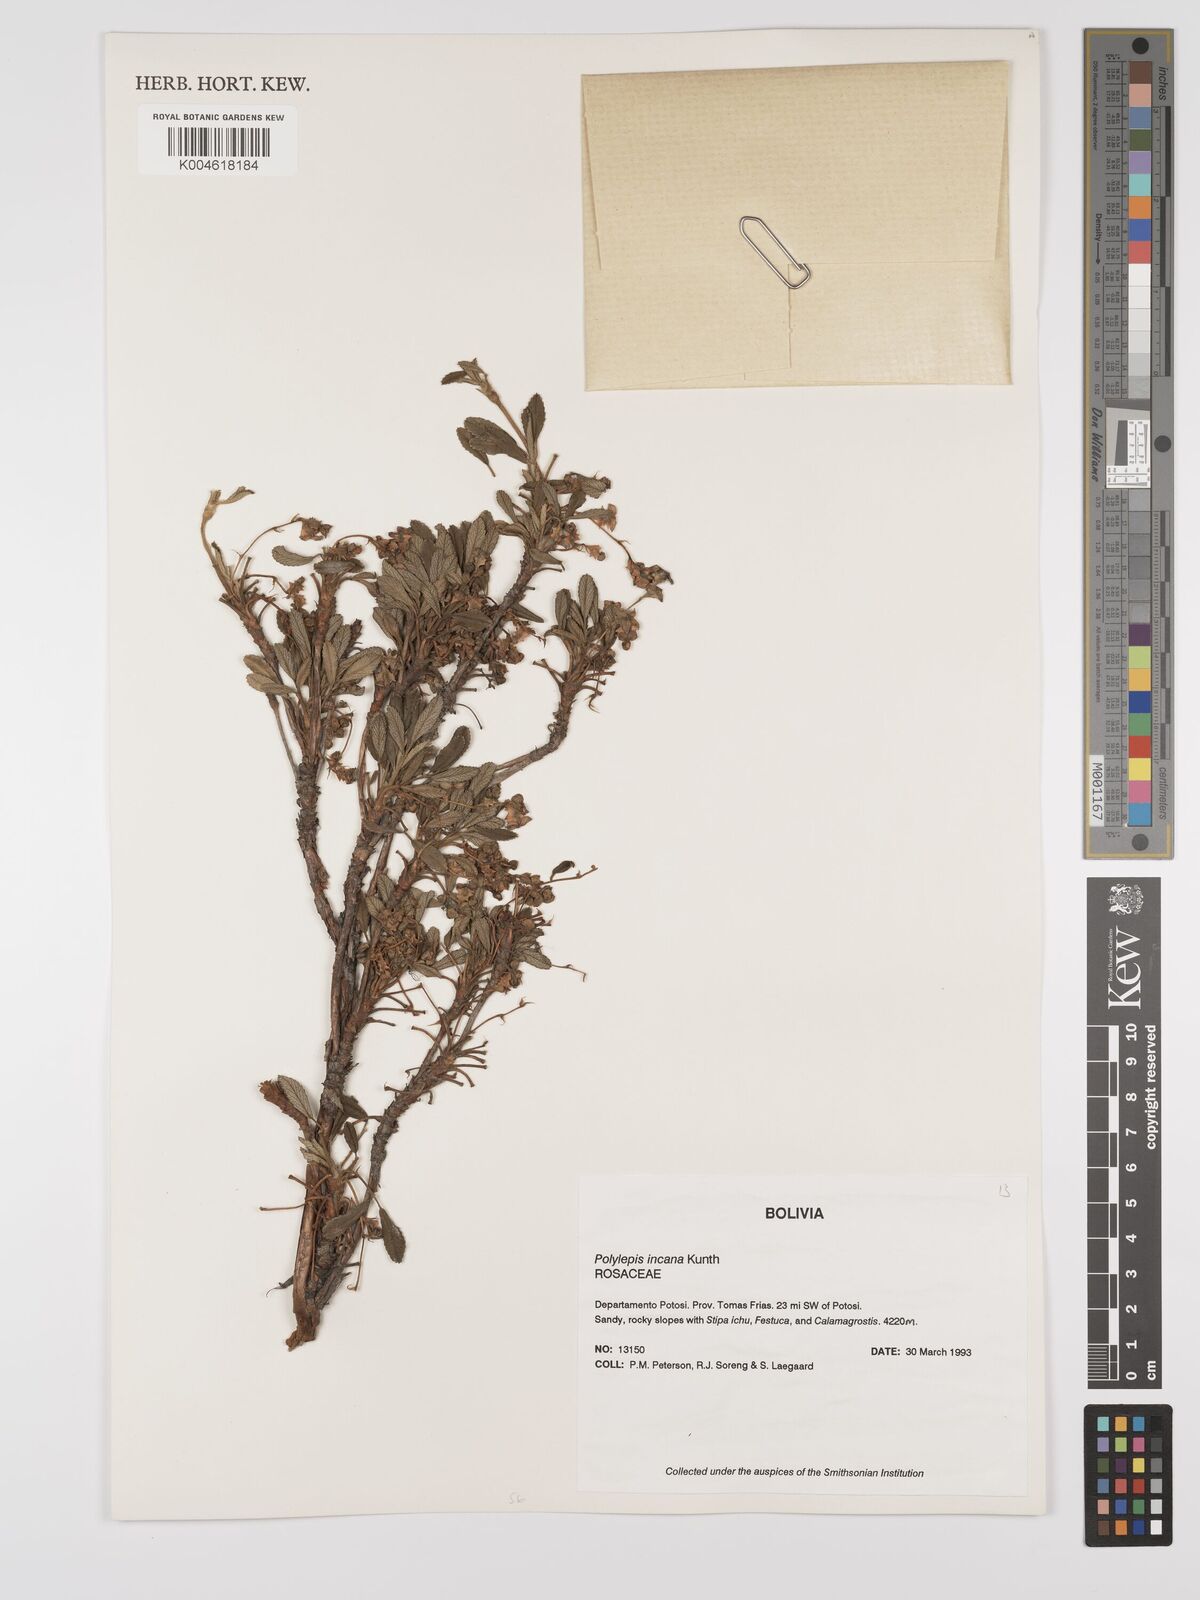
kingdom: Plantae
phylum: Tracheophyta
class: Magnoliopsida
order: Rosales
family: Rosaceae
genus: Polylepis
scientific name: Polylepis incana
